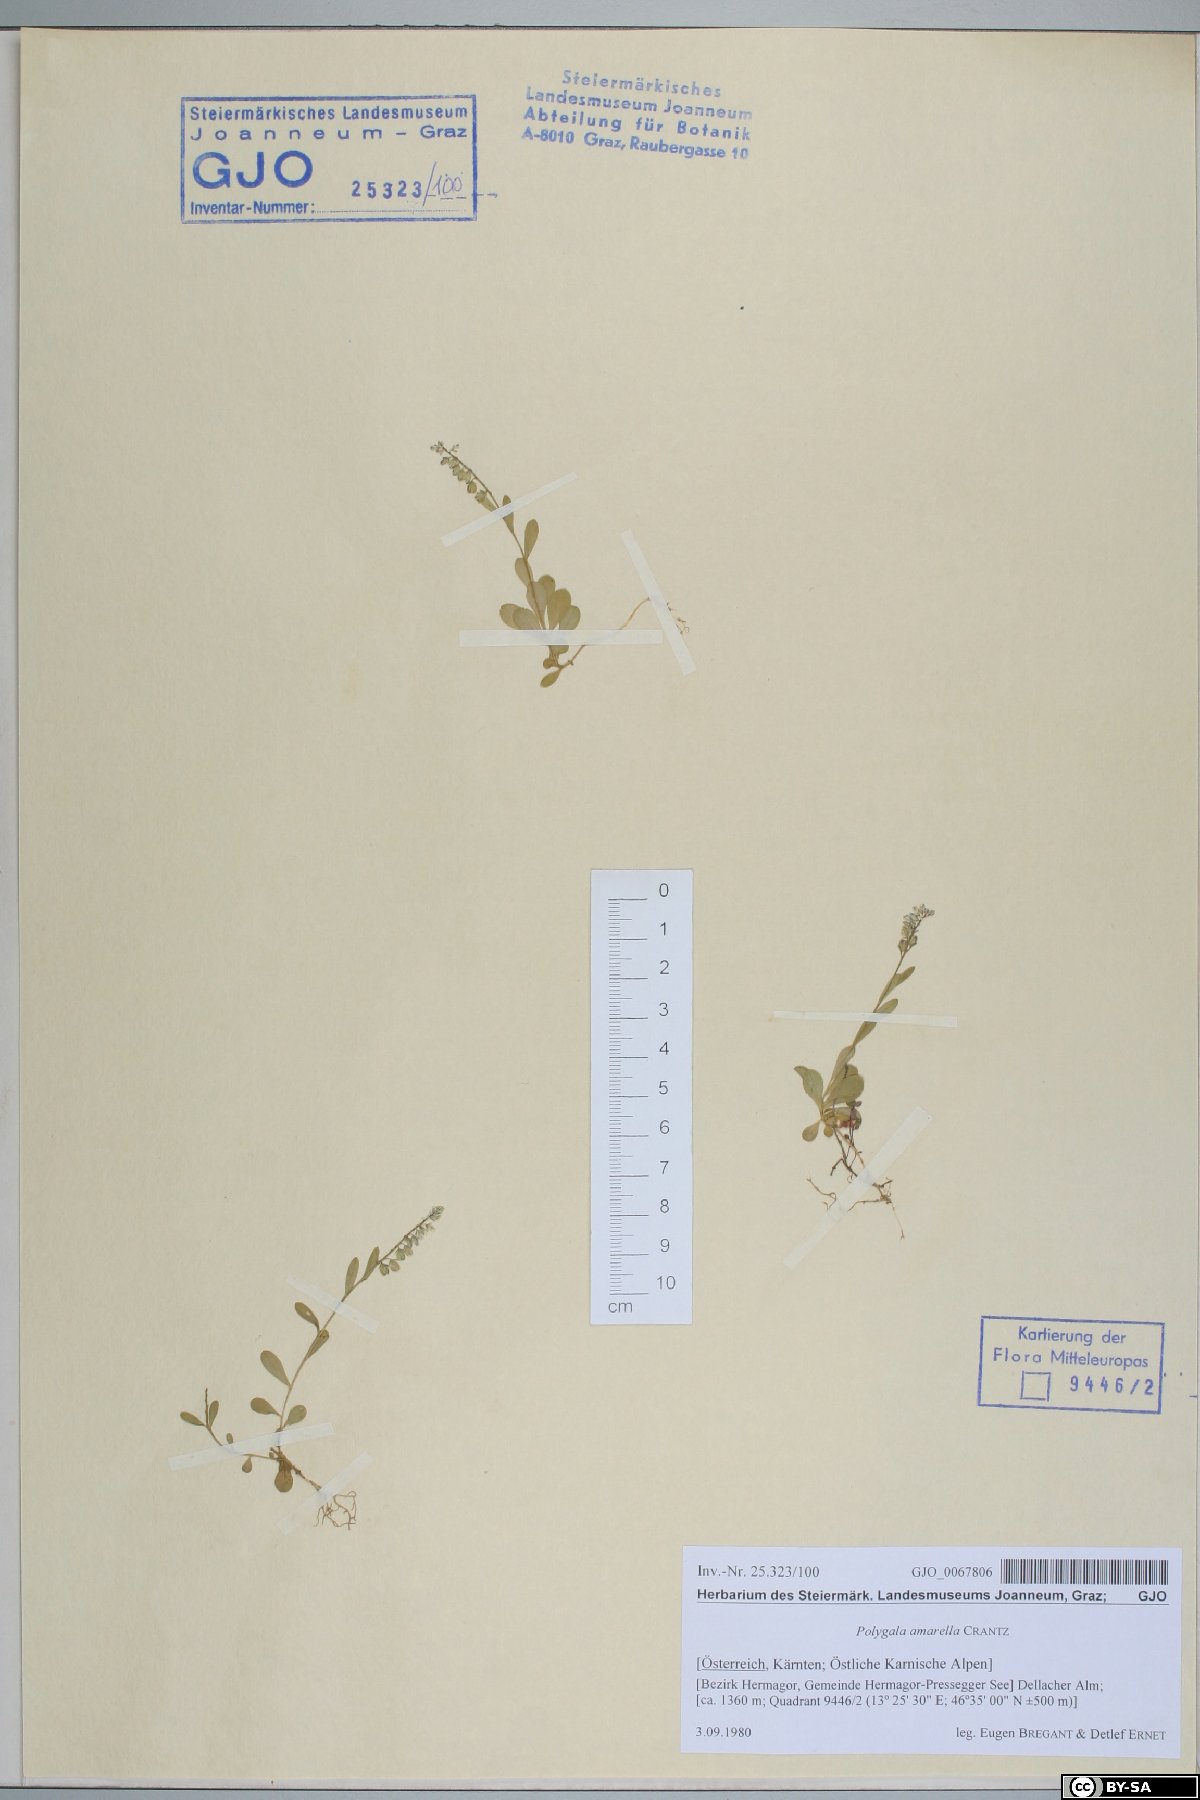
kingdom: Plantae
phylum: Tracheophyta
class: Magnoliopsida
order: Fabales
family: Polygalaceae
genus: Polygala
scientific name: Polygala amarella
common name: Dwarf milkwort
